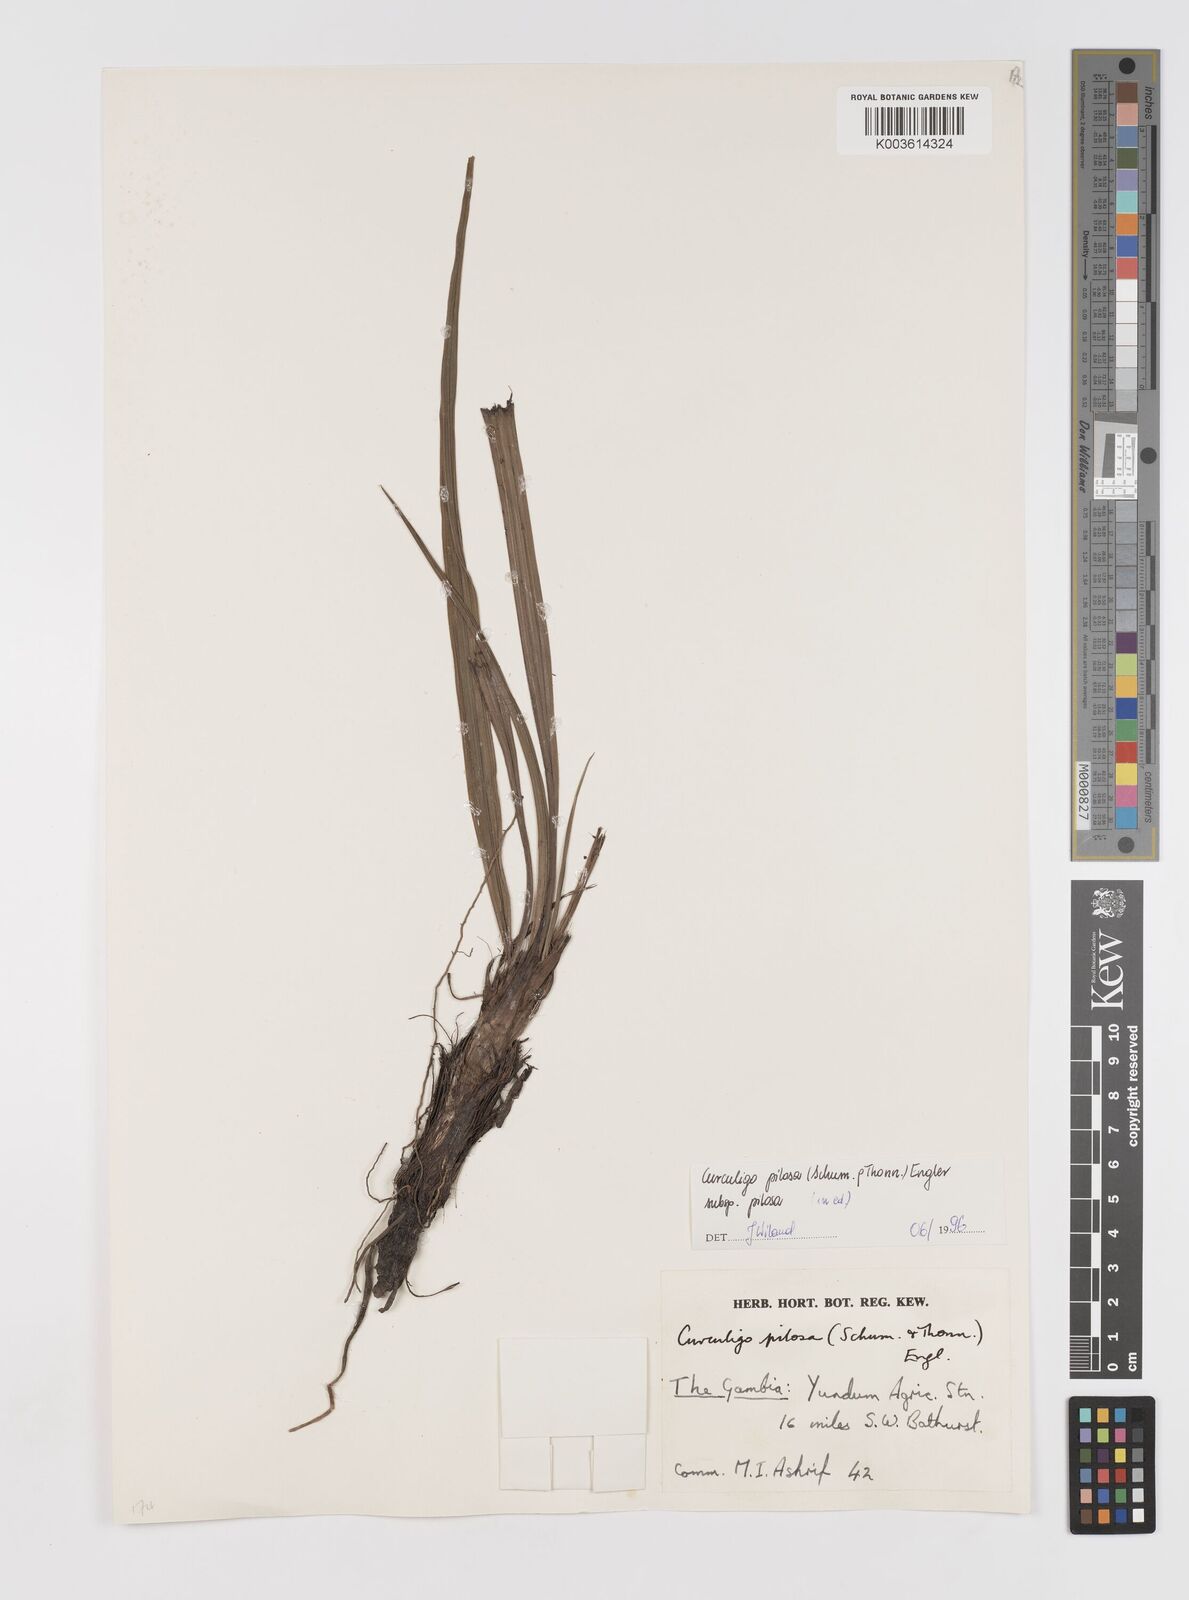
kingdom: Plantae
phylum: Tracheophyta
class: Liliopsida
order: Asparagales
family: Hypoxidaceae
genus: Curculigo
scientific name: Curculigo pilosa
